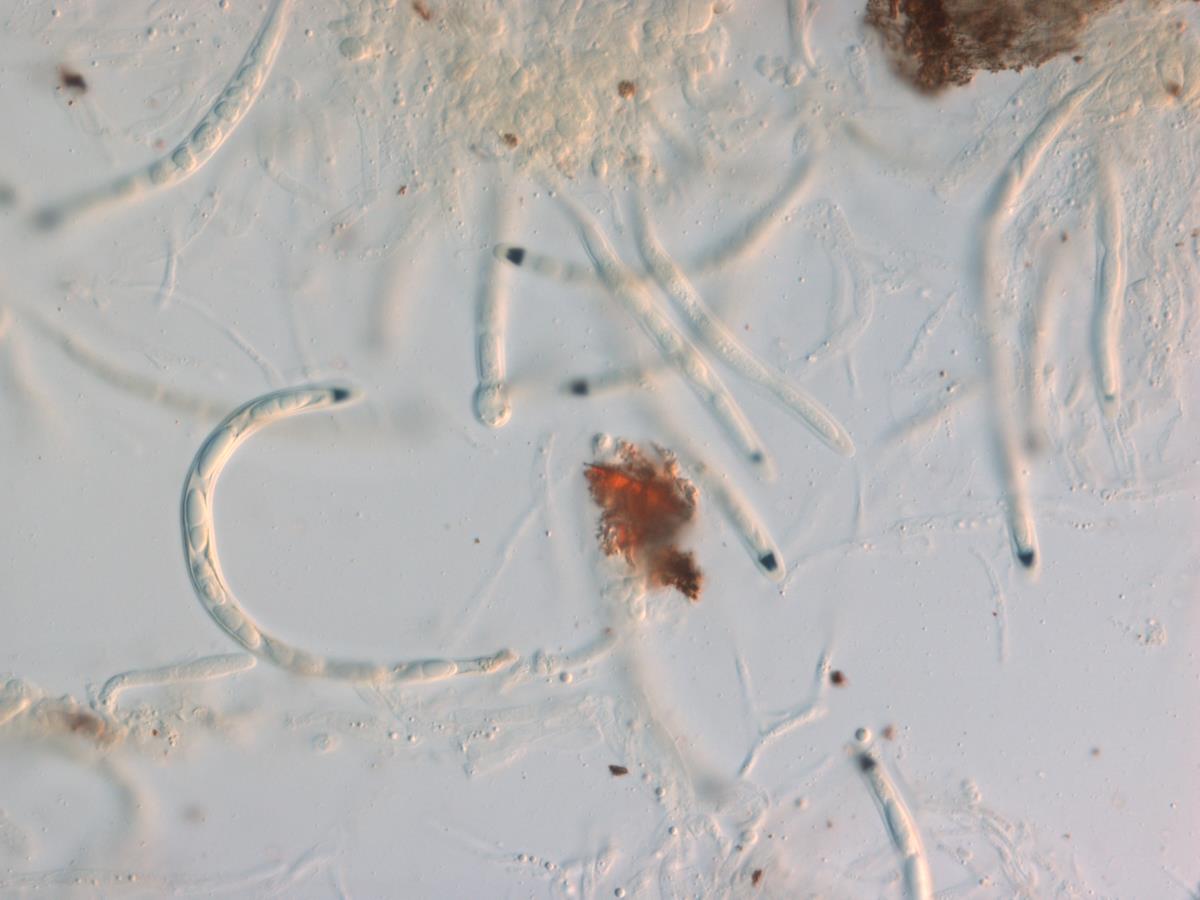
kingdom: Fungi
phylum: Ascomycota
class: Sordariomycetes
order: Xylariales
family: Xylariaceae
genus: Collodiscula
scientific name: Collodiscula
